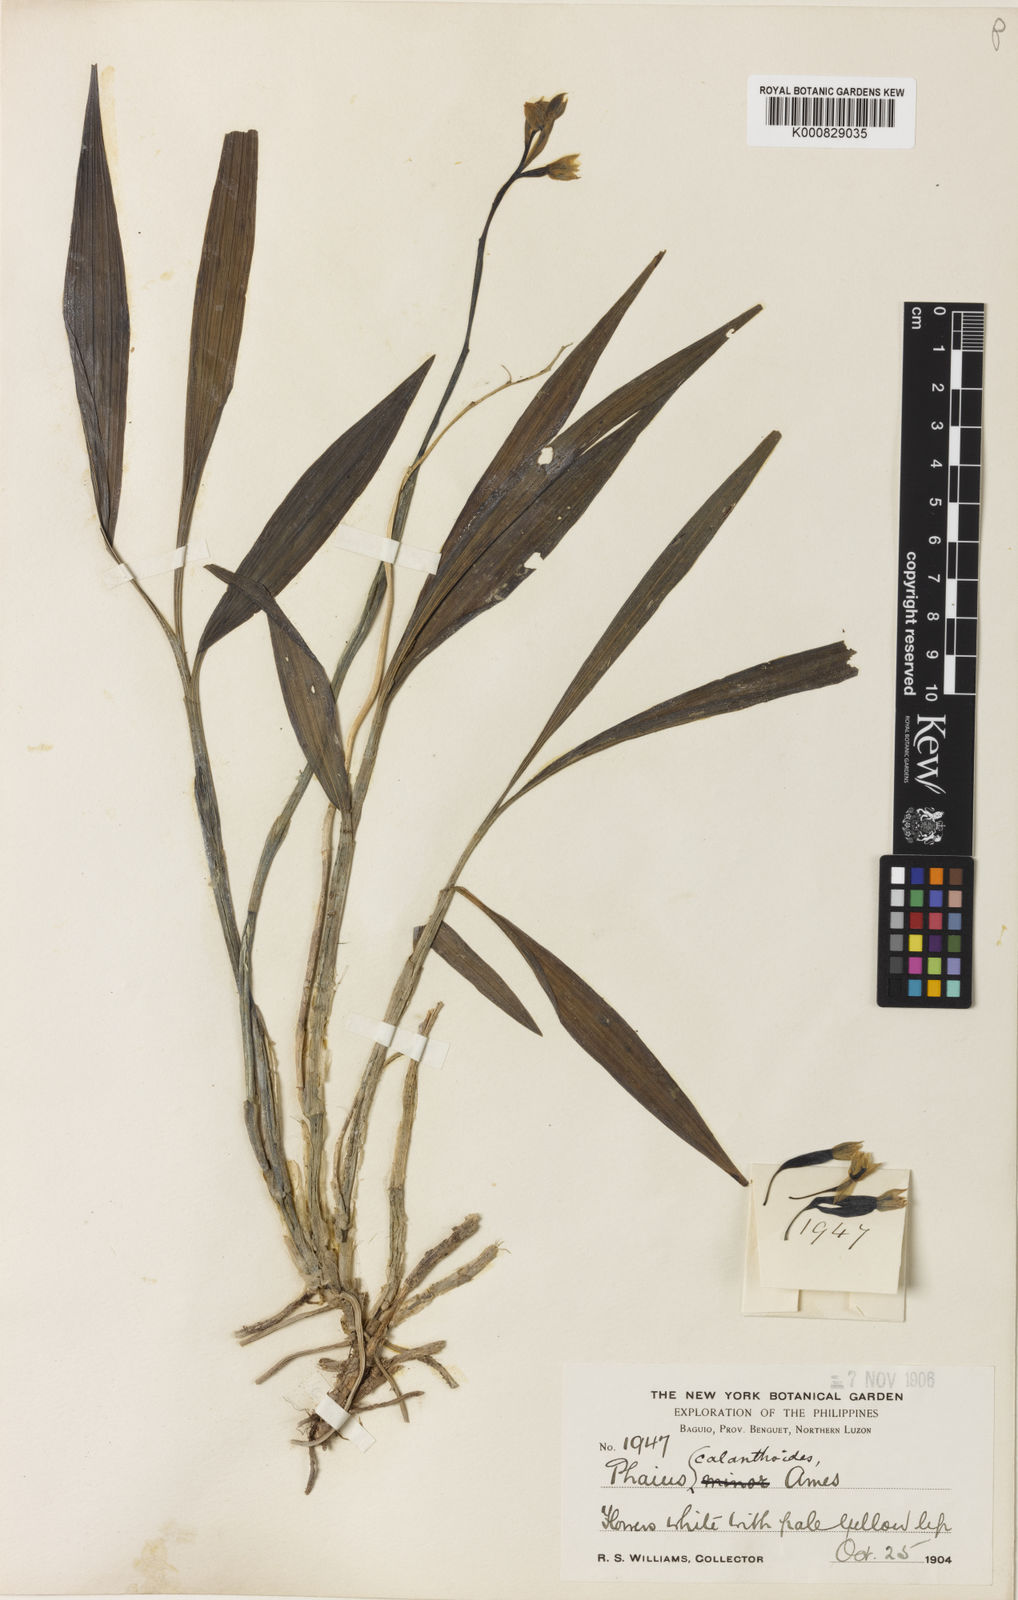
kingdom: Plantae
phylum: Tracheophyta
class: Liliopsida
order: Asparagales
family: Orchidaceae
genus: Calanthe
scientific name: Calanthe kooshunensis
